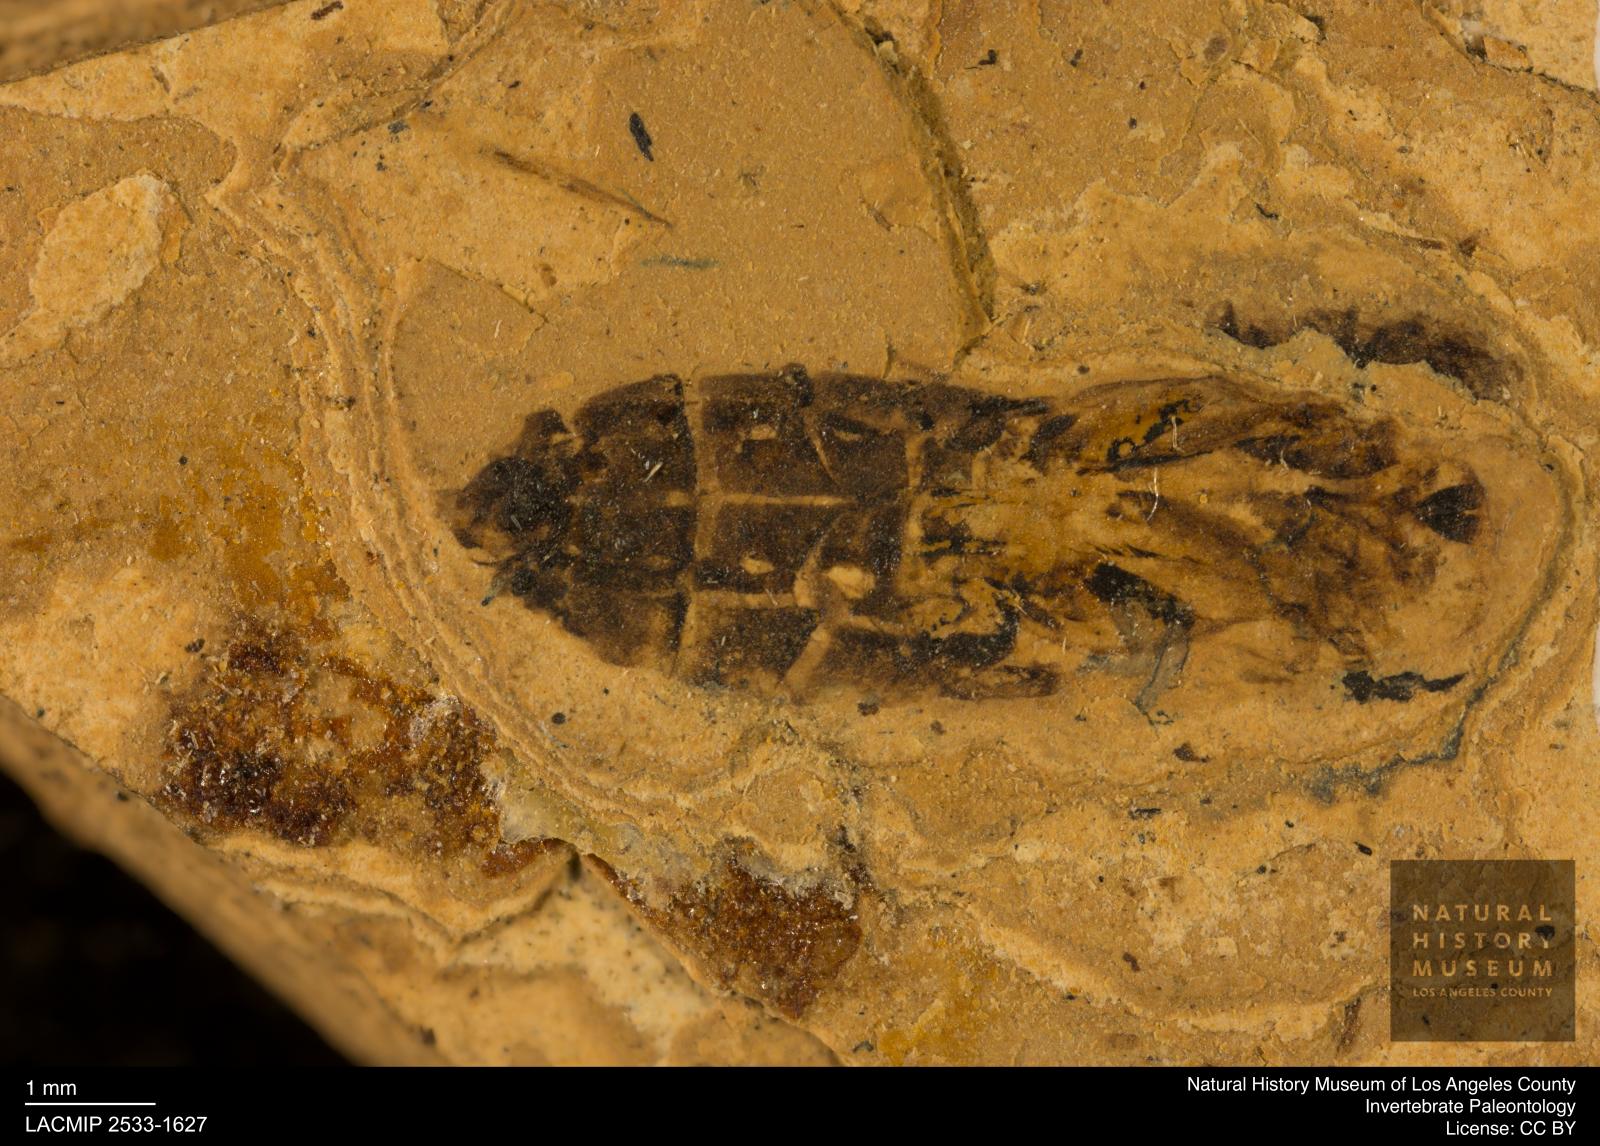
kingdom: Animalia
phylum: Arthropoda
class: Insecta
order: Hemiptera
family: Notonectidae
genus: Notonecta
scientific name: Notonecta
